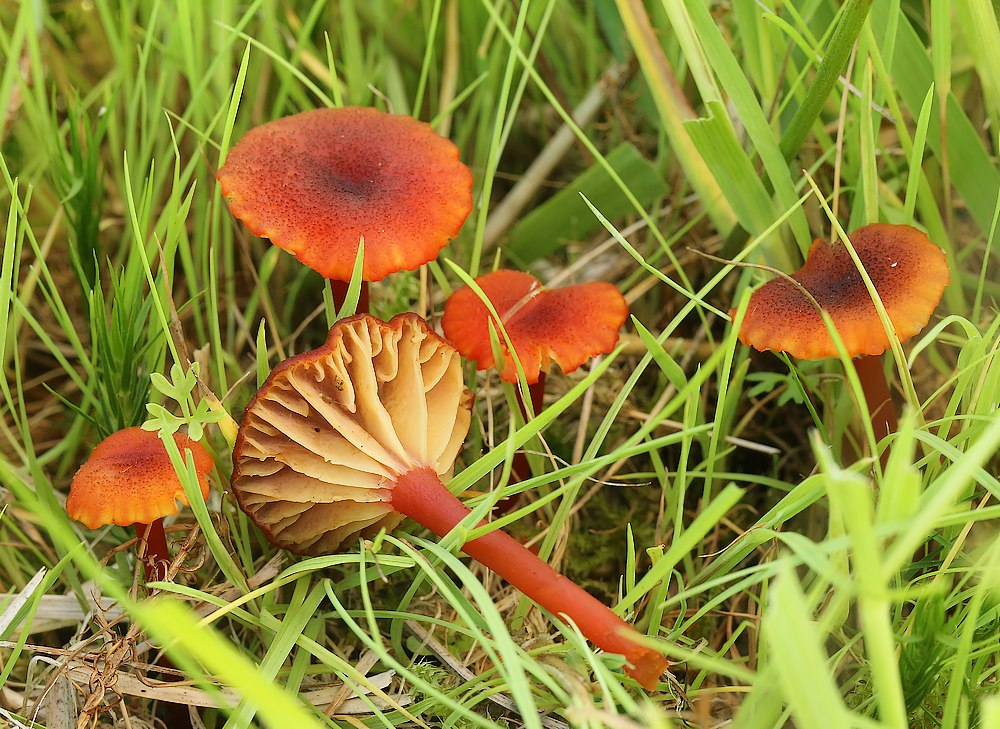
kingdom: Fungi
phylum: Basidiomycota
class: Agaricomycetes
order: Agaricales
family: Hygrophoraceae
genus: Hygrocybe
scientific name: Hygrocybe coccineocrenata
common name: tørvemos-vokshat
